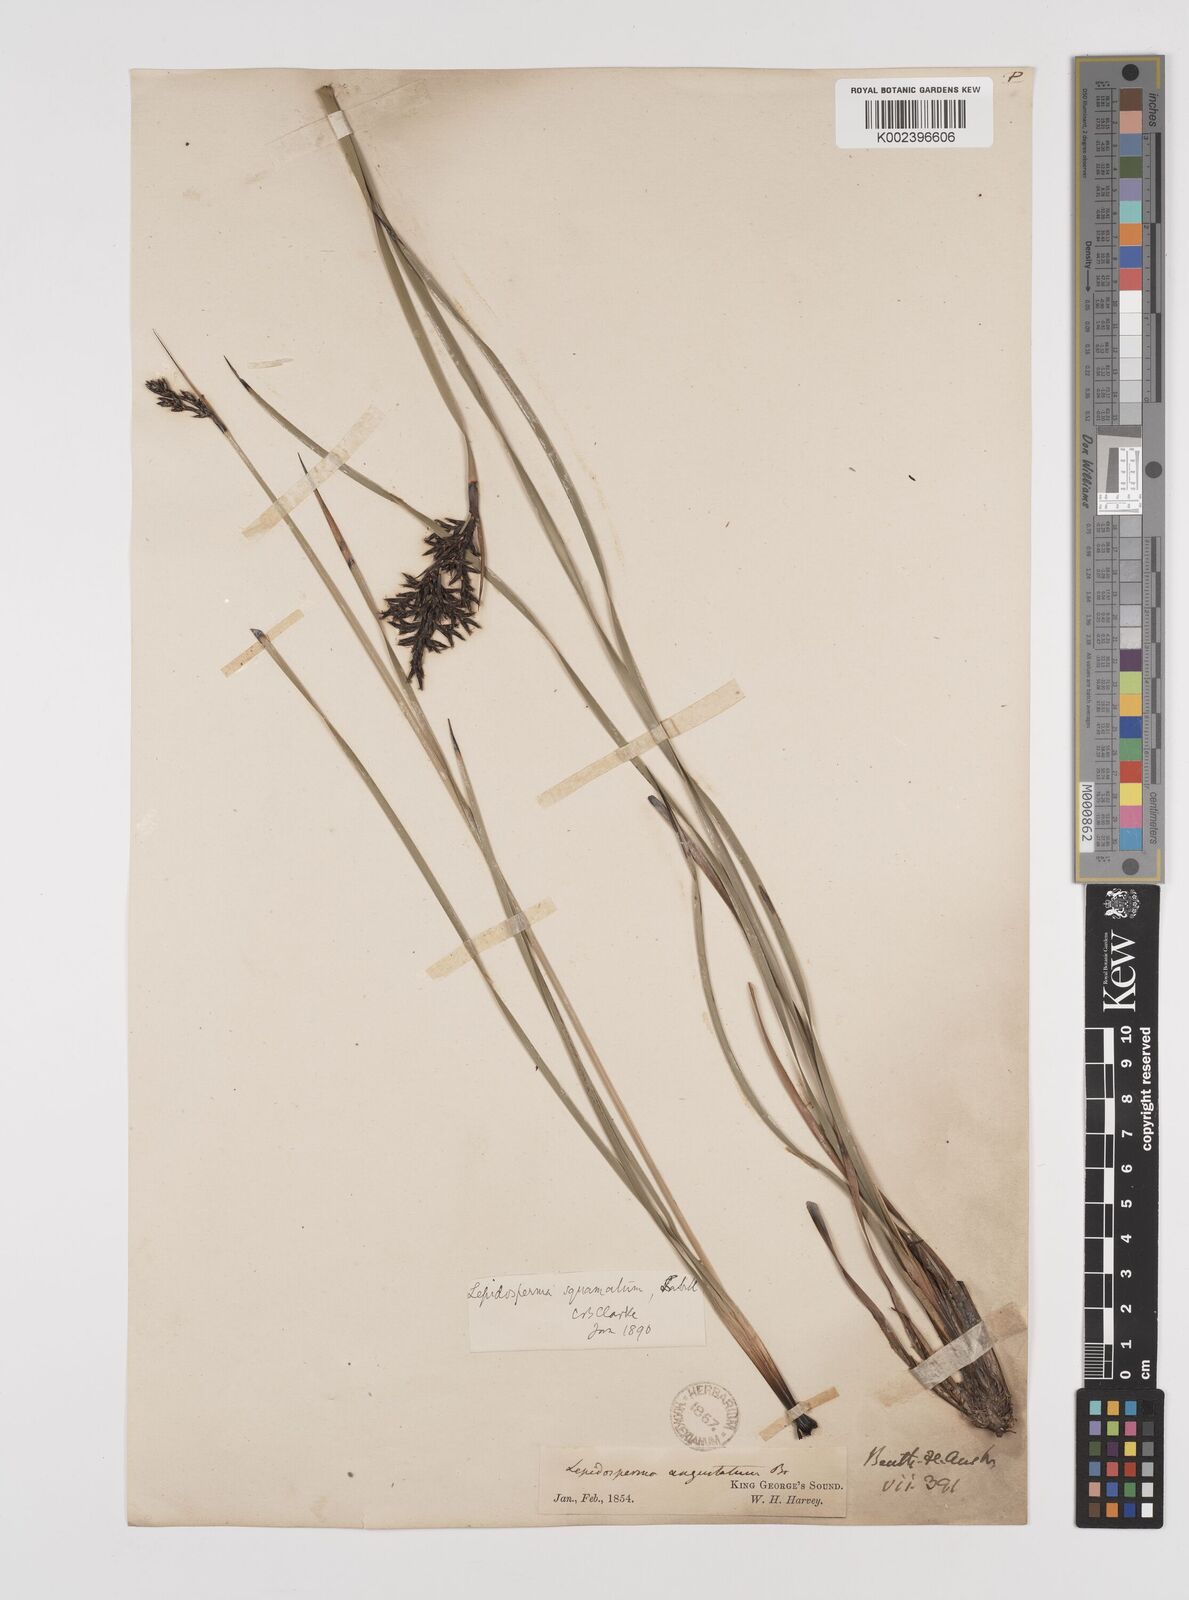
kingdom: Plantae
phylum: Tracheophyta
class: Liliopsida
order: Poales
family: Cyperaceae
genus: Lepidosperma
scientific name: Lepidosperma angustatum
